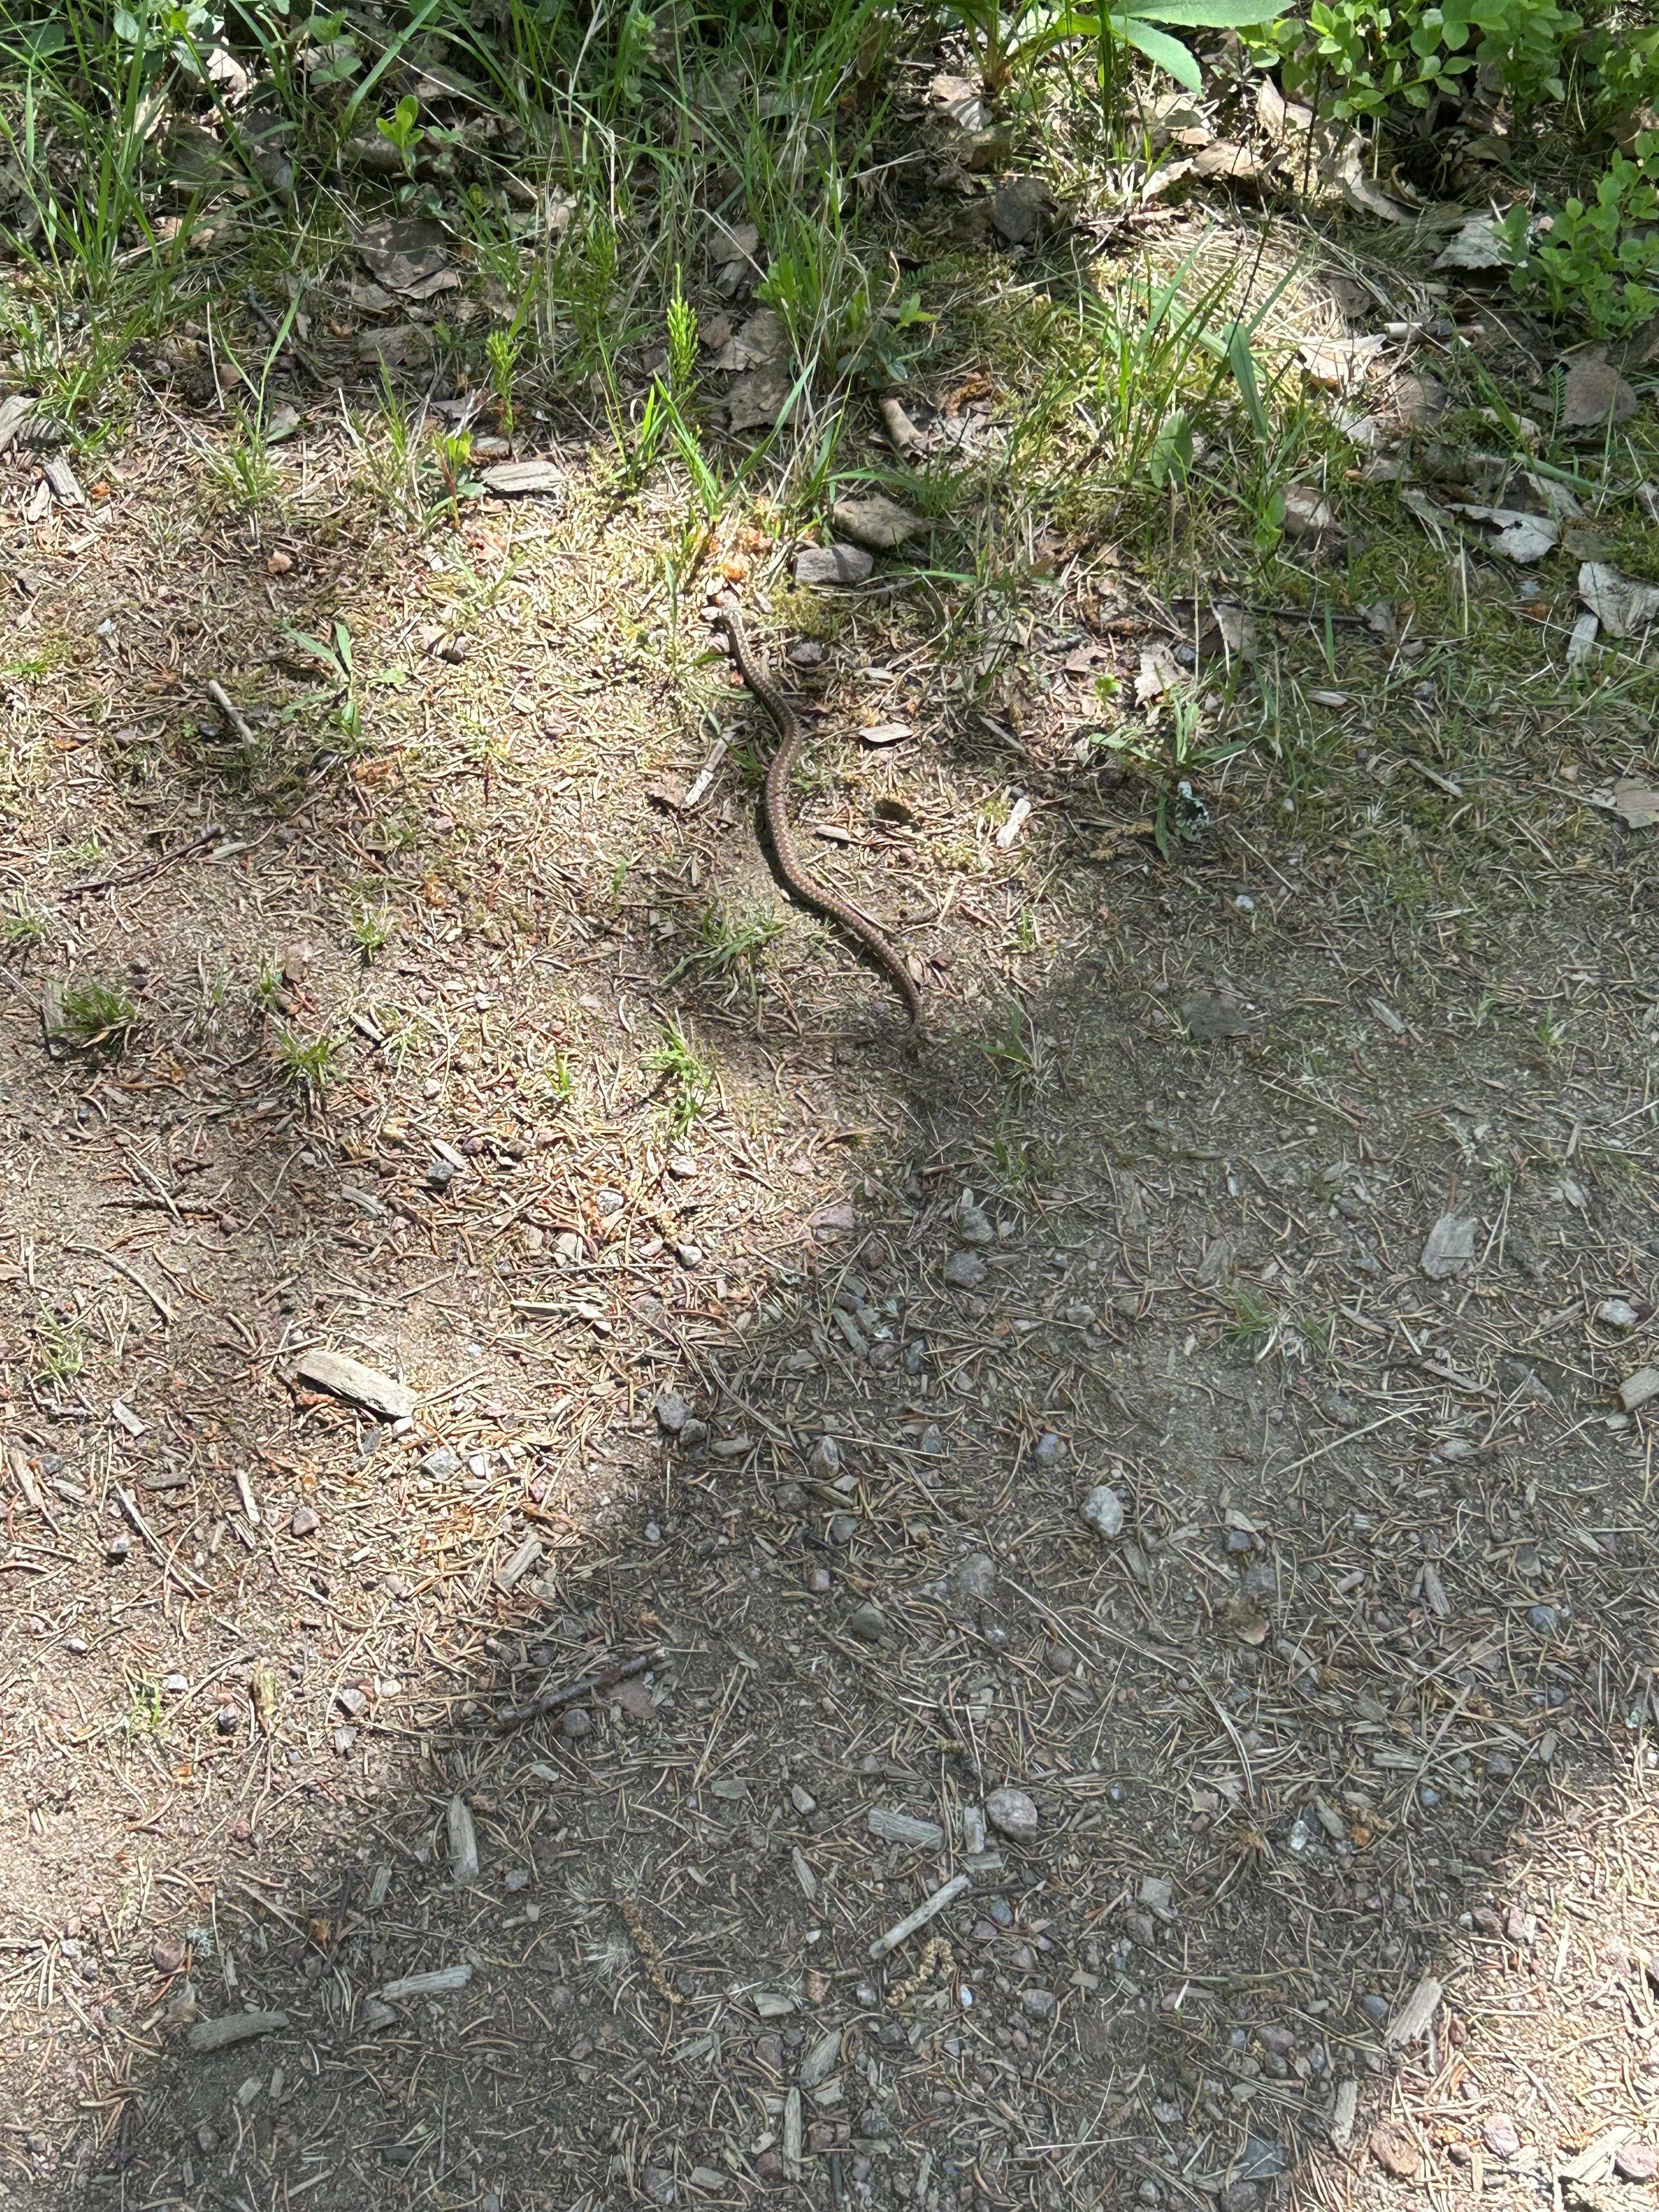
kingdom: Animalia
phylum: Chordata
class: Squamata
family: Viperidae
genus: Vipera
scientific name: Vipera berus
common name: Adder
